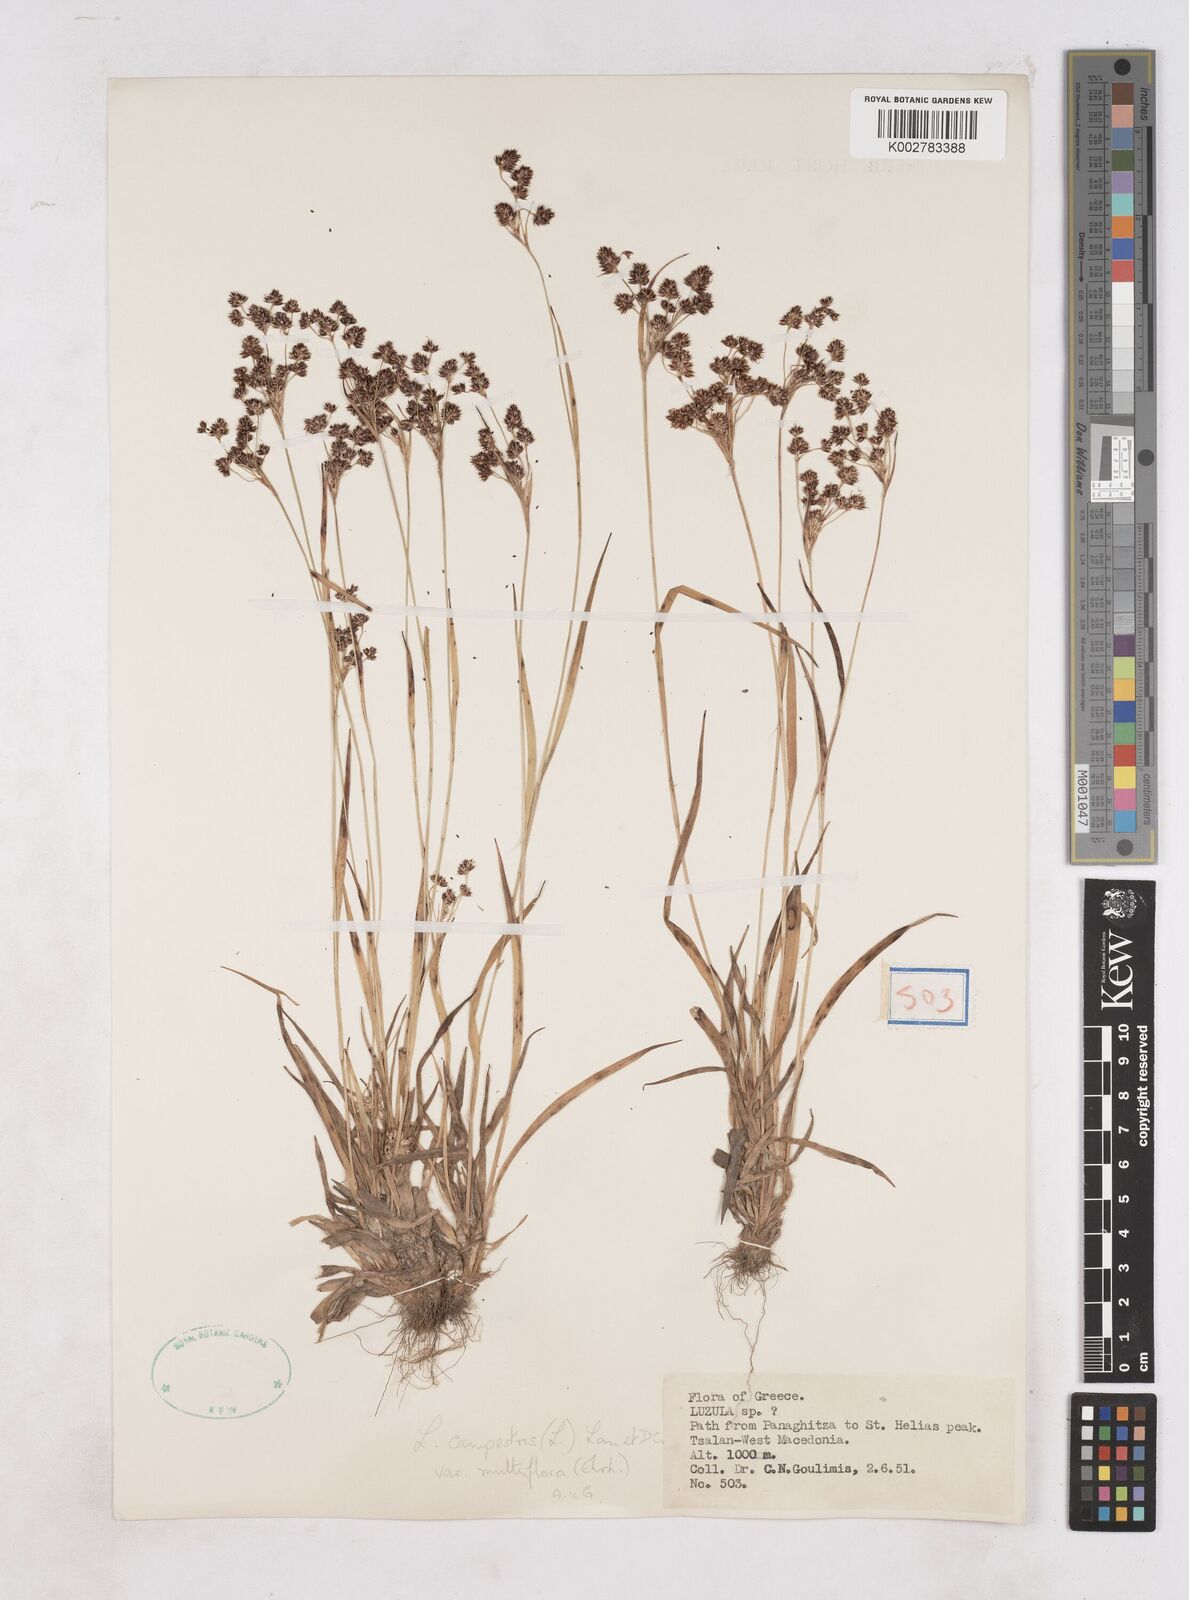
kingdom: Plantae
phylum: Tracheophyta
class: Liliopsida
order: Poales
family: Juncaceae
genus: Luzula
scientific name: Luzula multiflora
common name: Heath wood-rush
